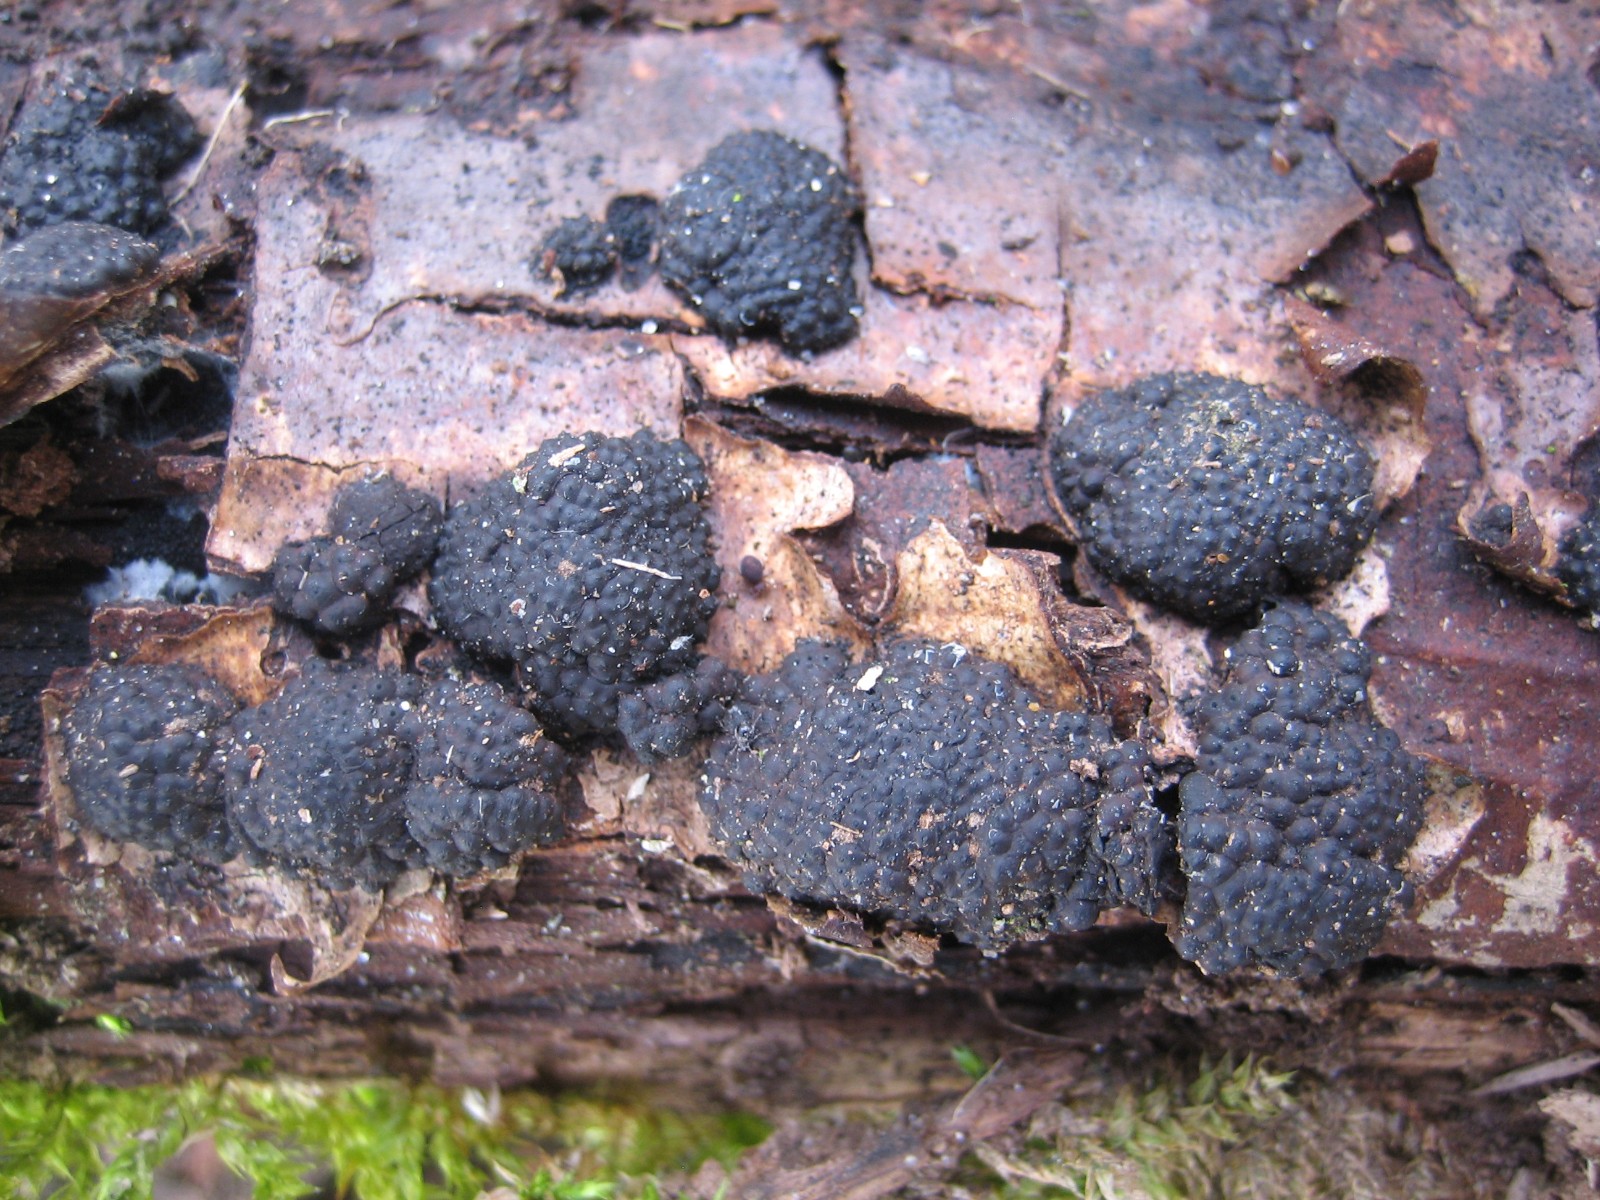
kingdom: Fungi
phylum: Ascomycota
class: Sordariomycetes
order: Xylariales
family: Hypoxylaceae
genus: Jackrogersella
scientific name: Jackrogersella multiformis
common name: foranderlig kulbær
